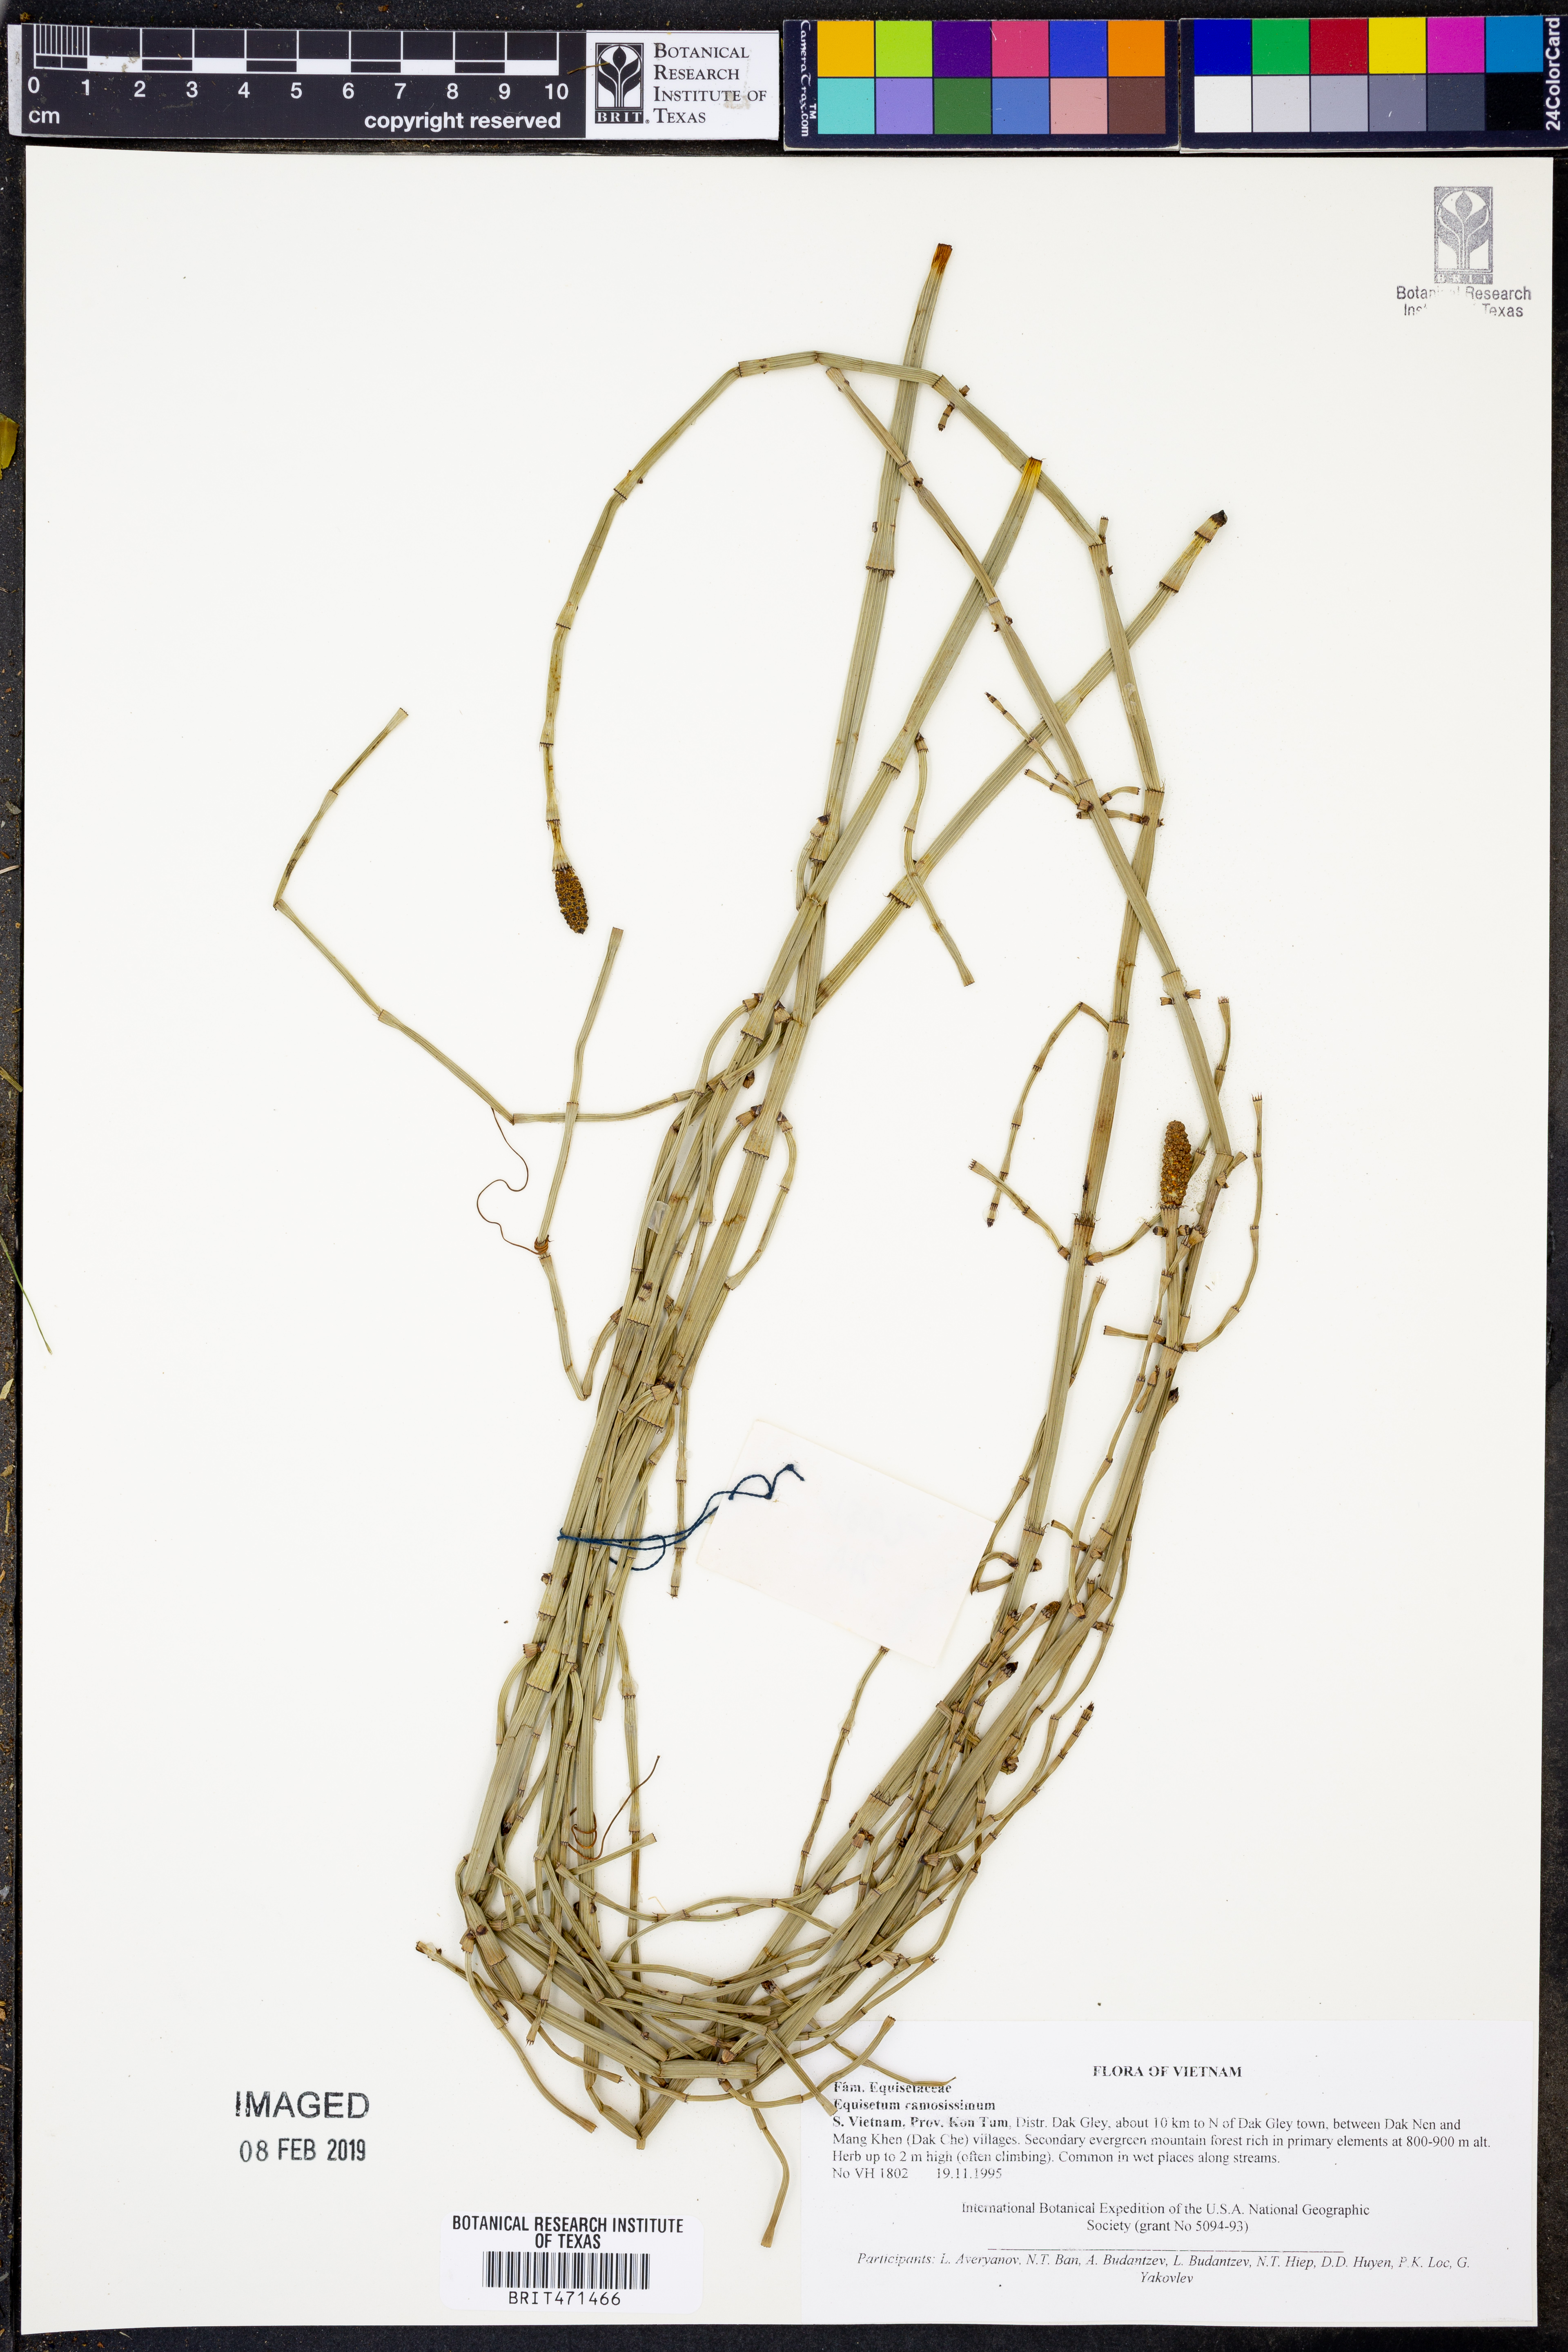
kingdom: Plantae
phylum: Tracheophyta
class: Polypodiopsida
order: Equisetales
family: Equisetaceae
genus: Equisetum
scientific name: Equisetum ramosissimum
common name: Branched horsetail
